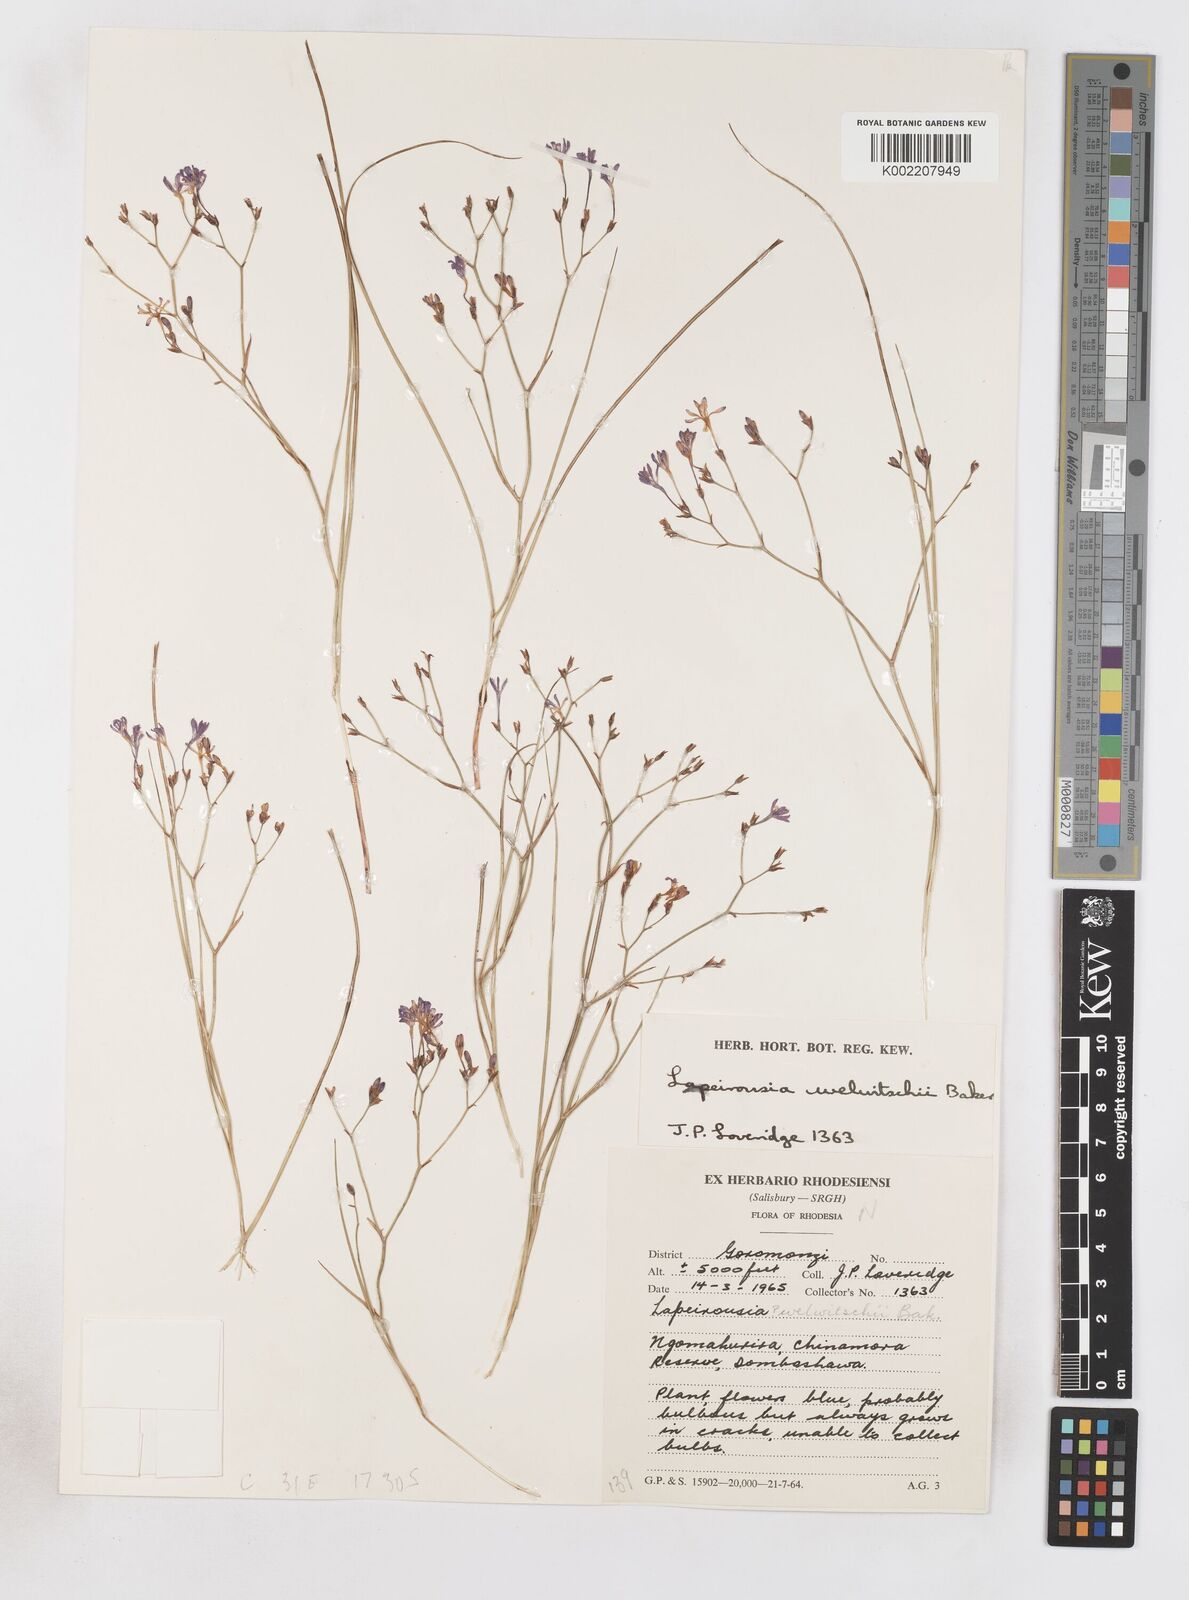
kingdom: Plantae
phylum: Tracheophyta
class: Liliopsida
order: Asparagales
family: Iridaceae
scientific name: Iridaceae
